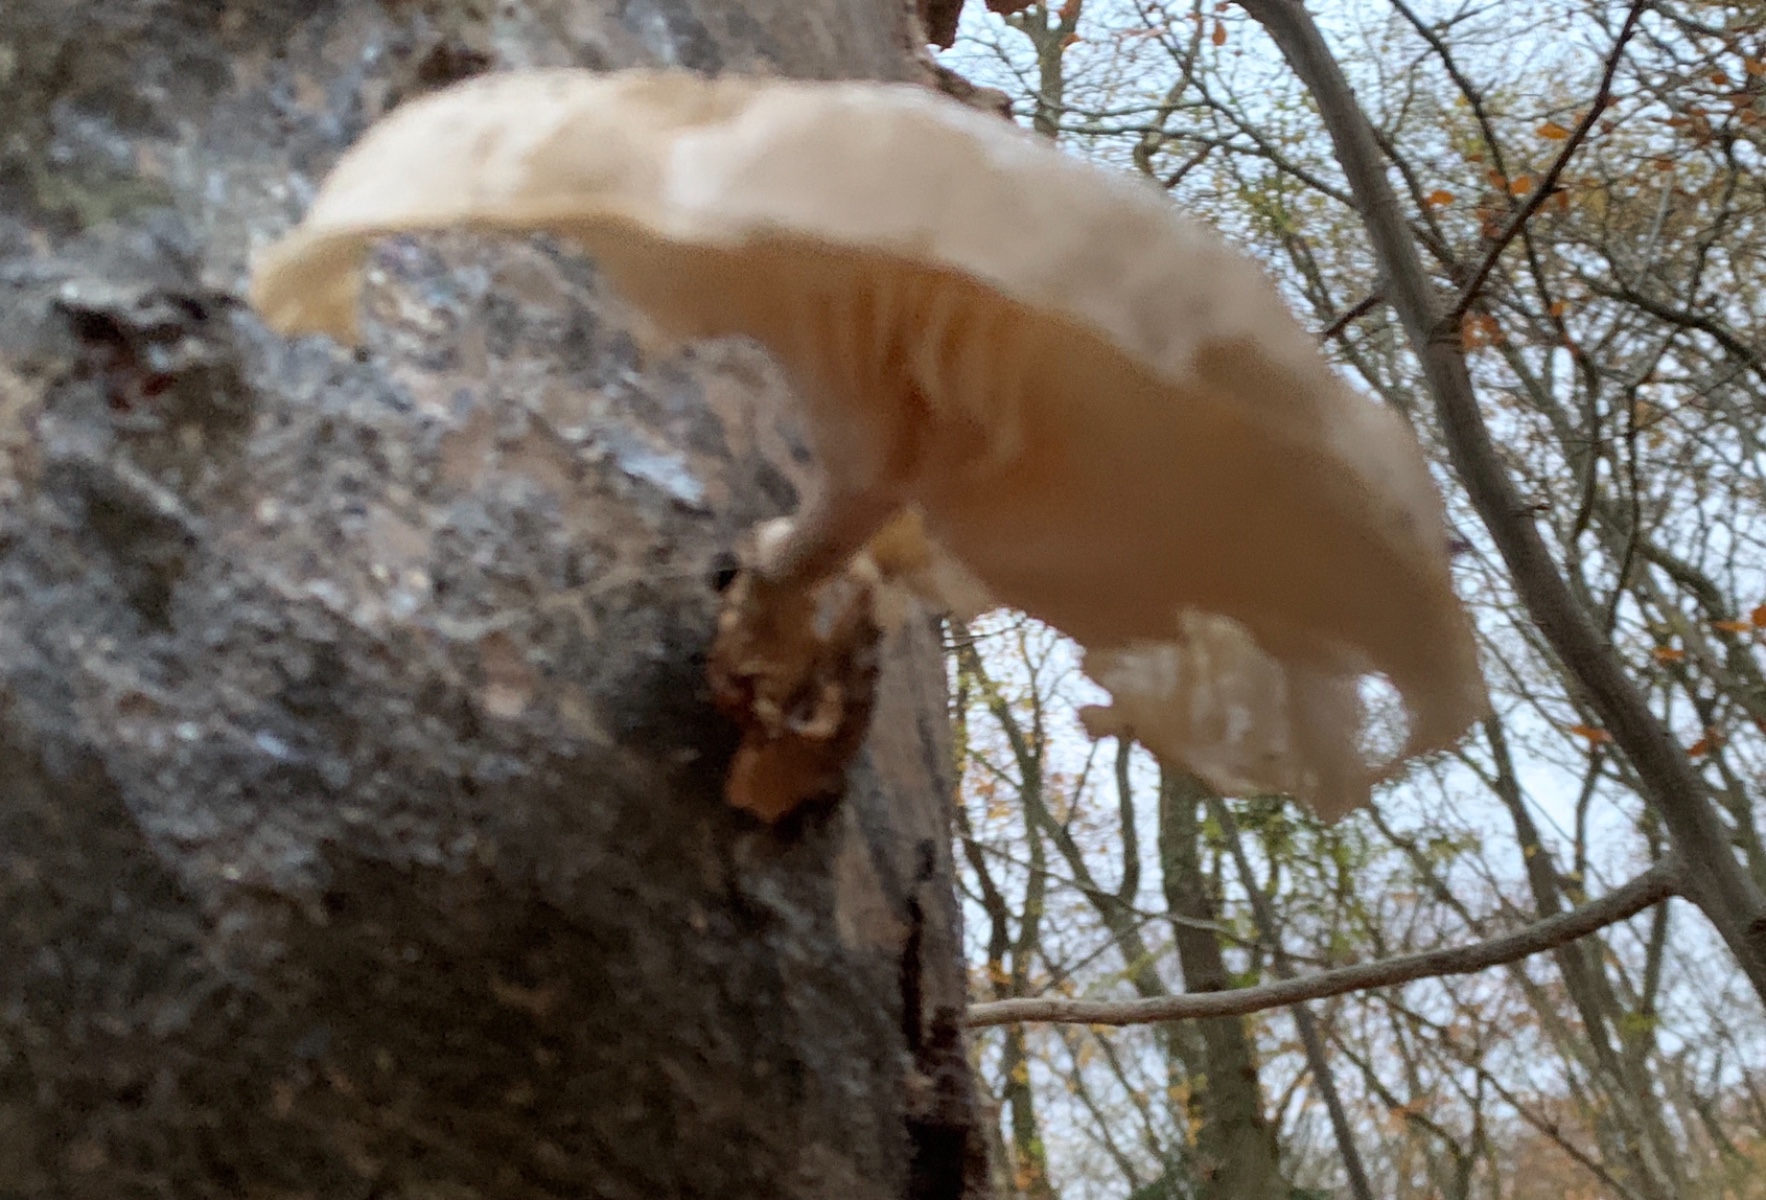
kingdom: Fungi
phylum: Basidiomycota
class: Agaricomycetes
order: Agaricales
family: Physalacriaceae
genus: Mucidula
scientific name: Mucidula mucida
